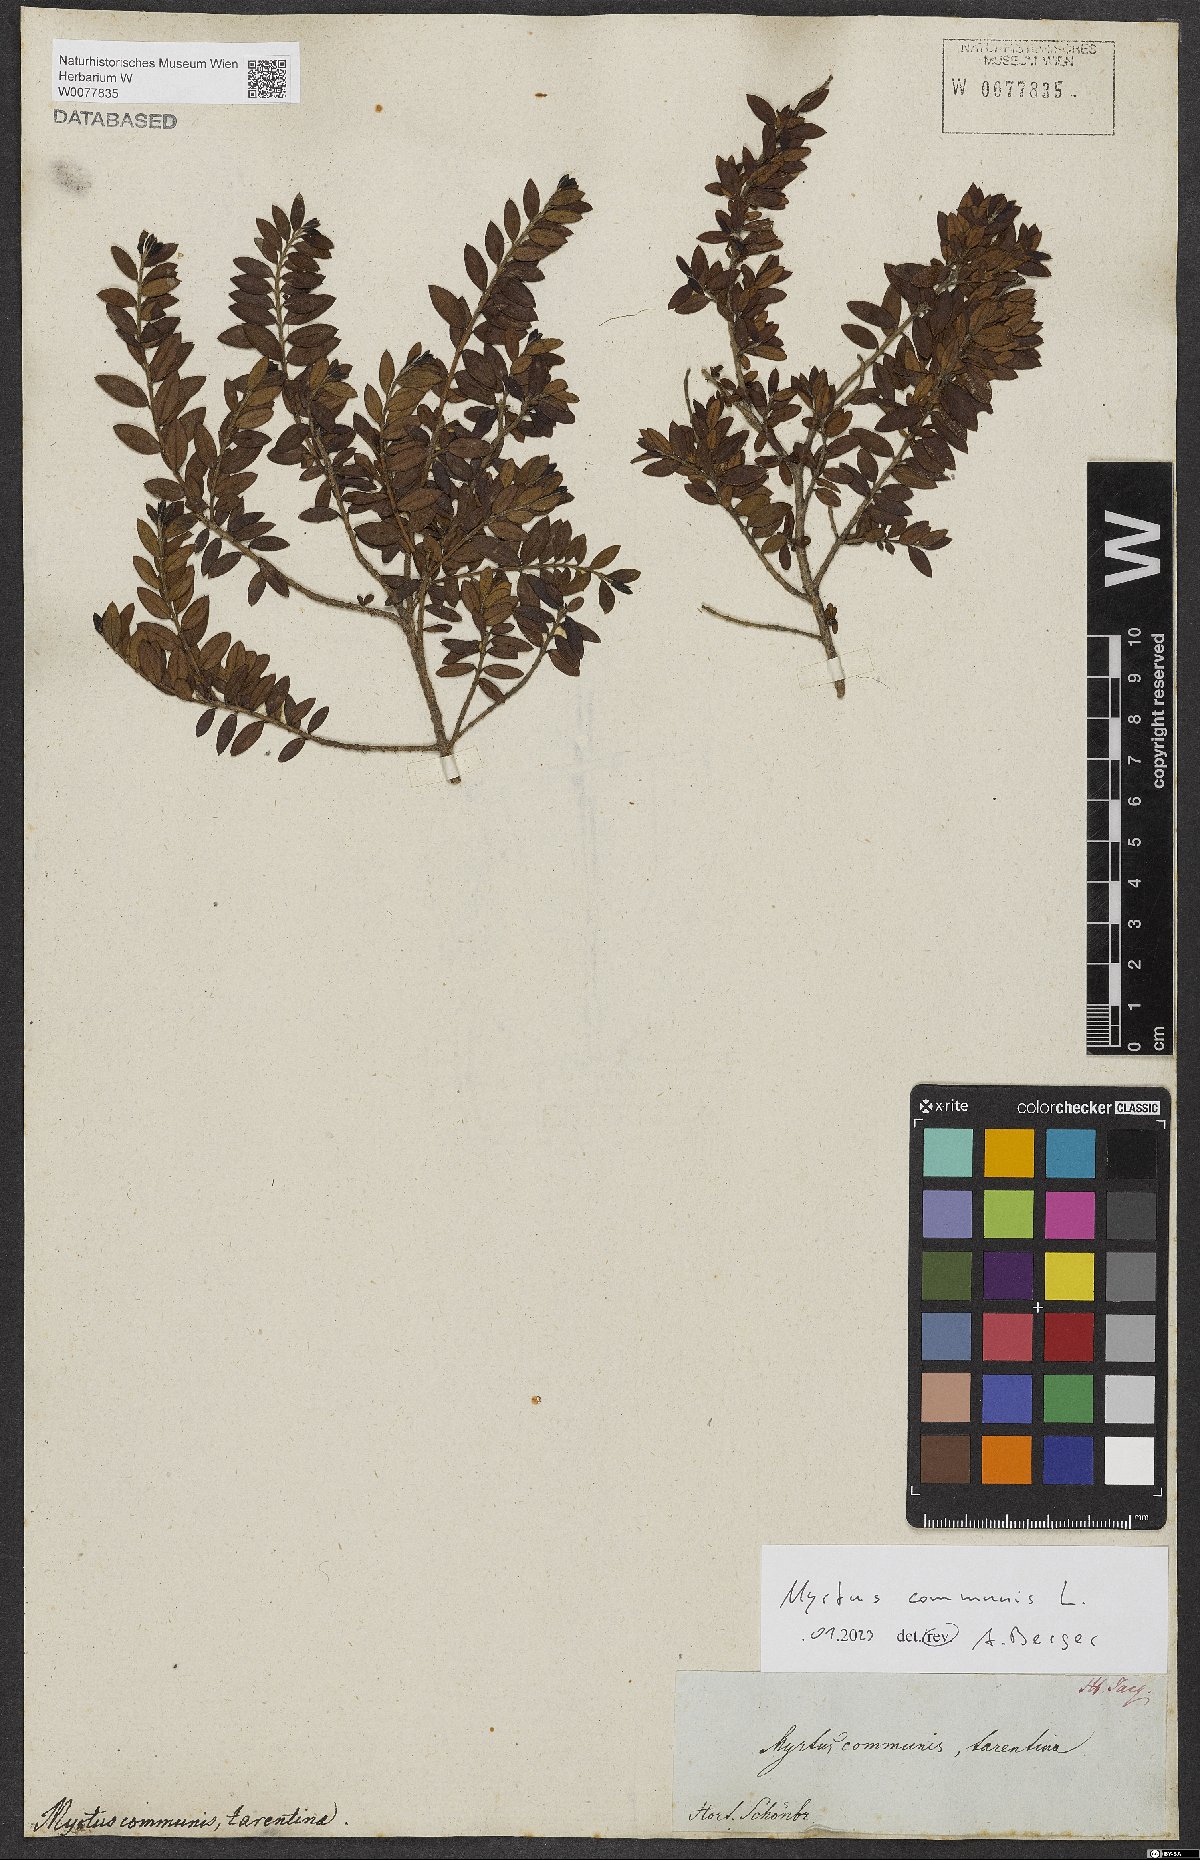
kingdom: Plantae
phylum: Tracheophyta
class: Magnoliopsida
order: Myrtales
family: Myrtaceae
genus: Myrtus
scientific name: Myrtus communis
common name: Myrtle
